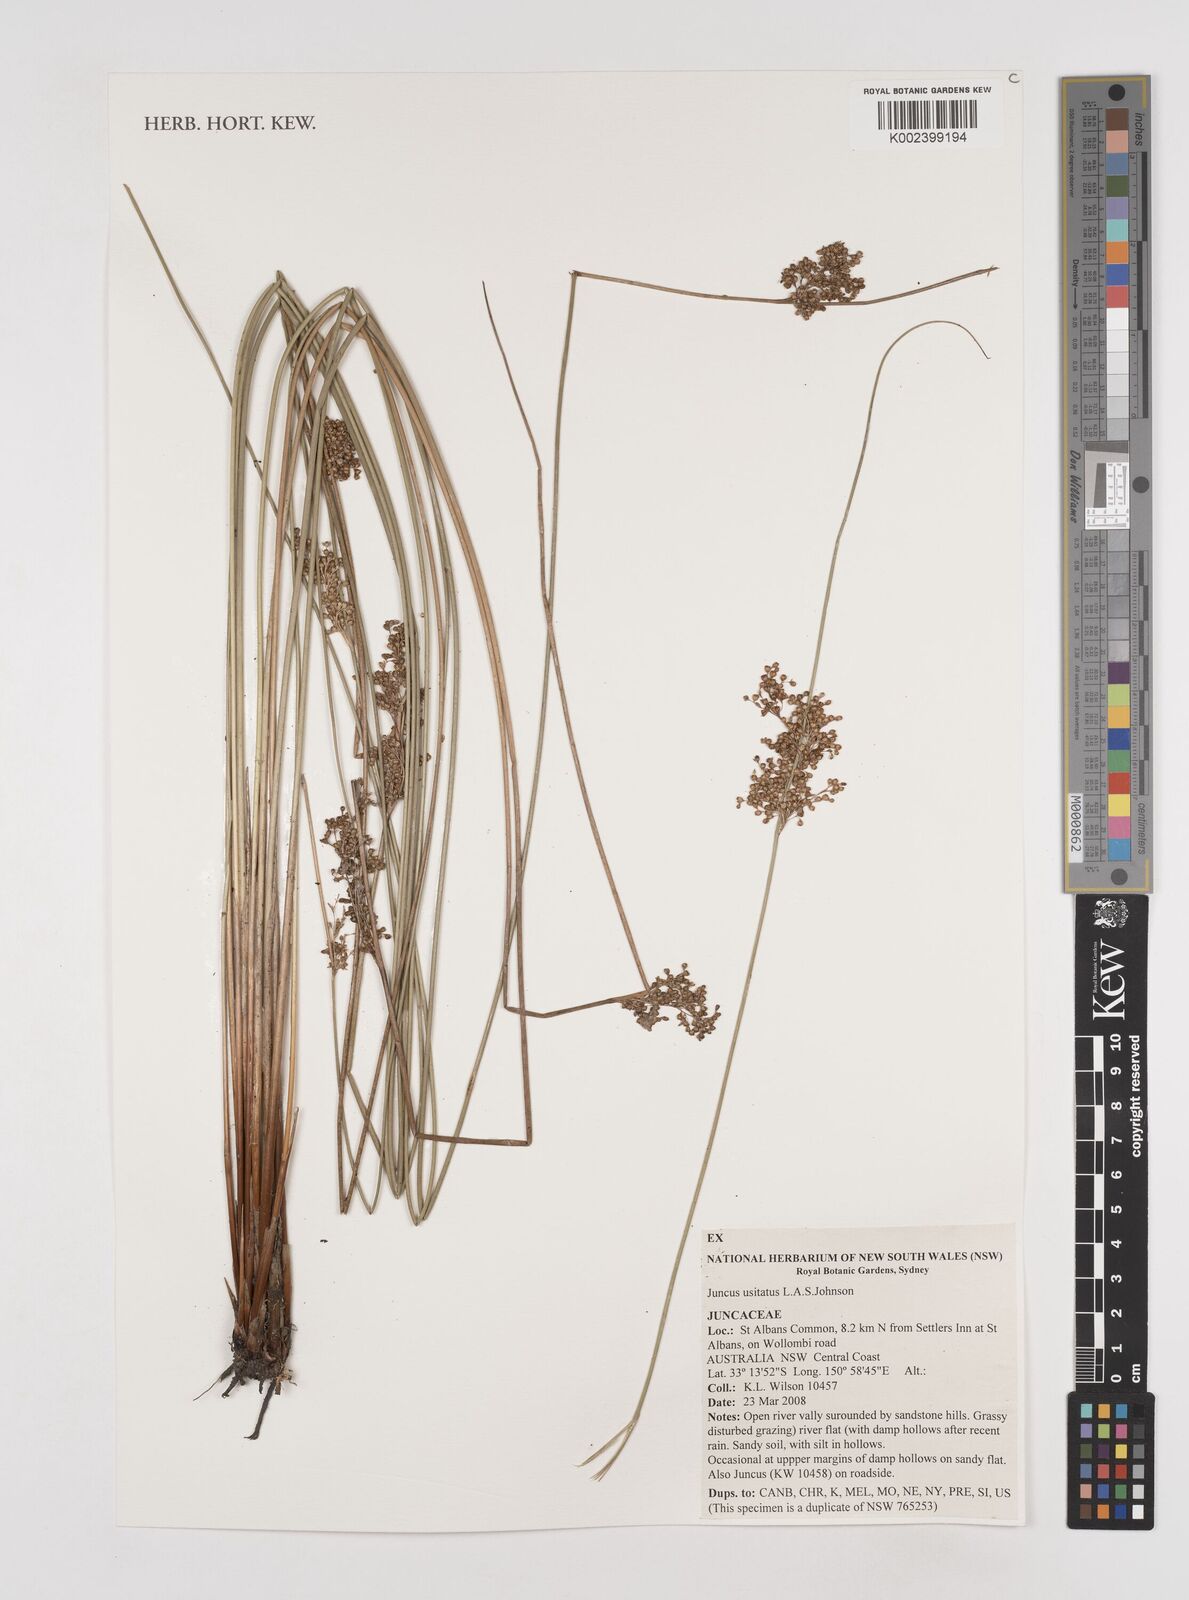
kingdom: Plantae
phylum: Tracheophyta
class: Liliopsida
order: Poales
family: Juncaceae
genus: Juncus
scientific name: Juncus usitatus
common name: Rush
